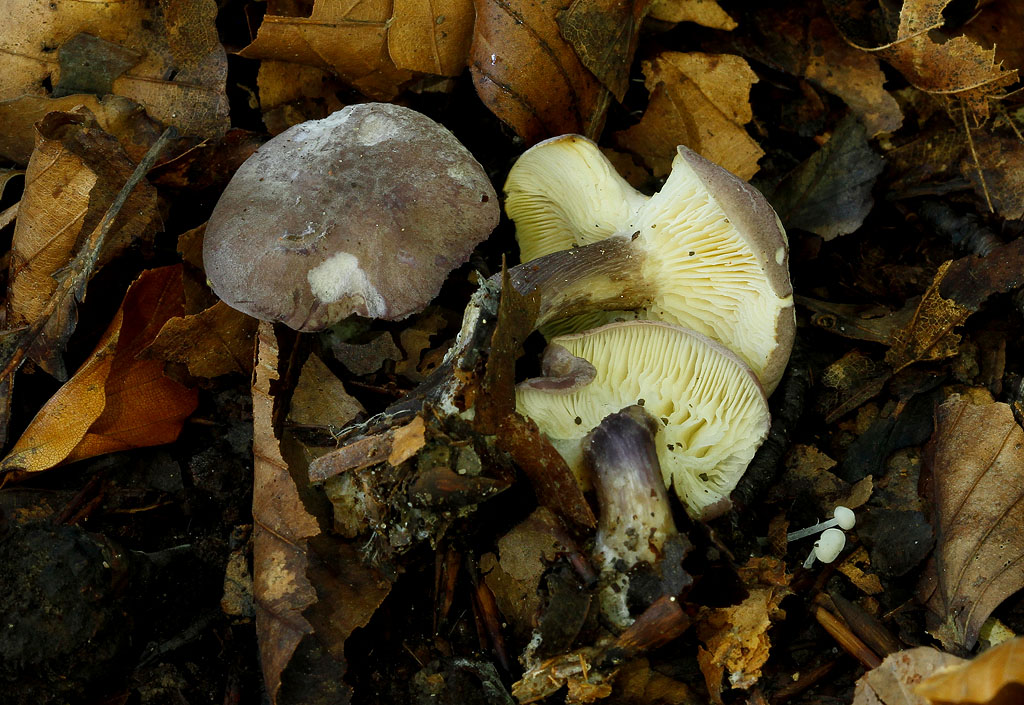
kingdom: Fungi
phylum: Basidiomycota
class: Agaricomycetes
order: Agaricales
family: Lyophyllaceae
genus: Calocybe
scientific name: Calocybe ionides
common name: violblå fagerhat
